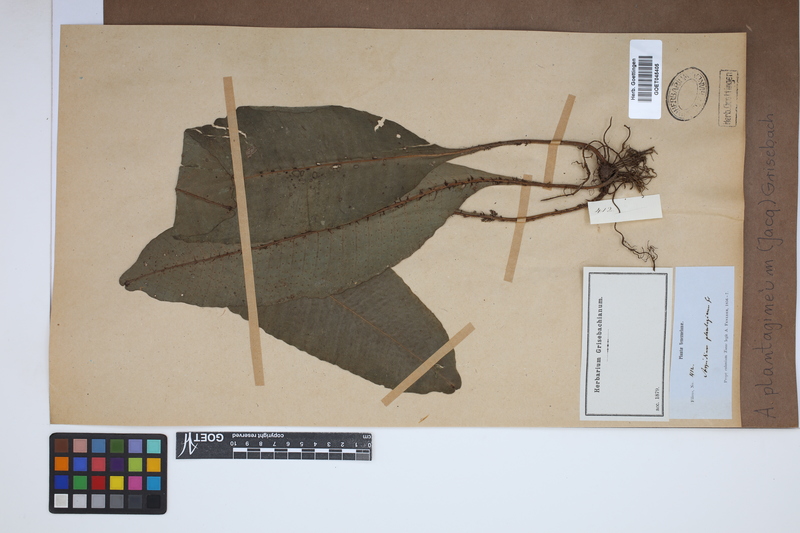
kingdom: Plantae
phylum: Tracheophyta
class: Polypodiopsida
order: Polypodiales
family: Lomariopsidaceae
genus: Dracoglossum
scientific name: Dracoglossum plantagineum
